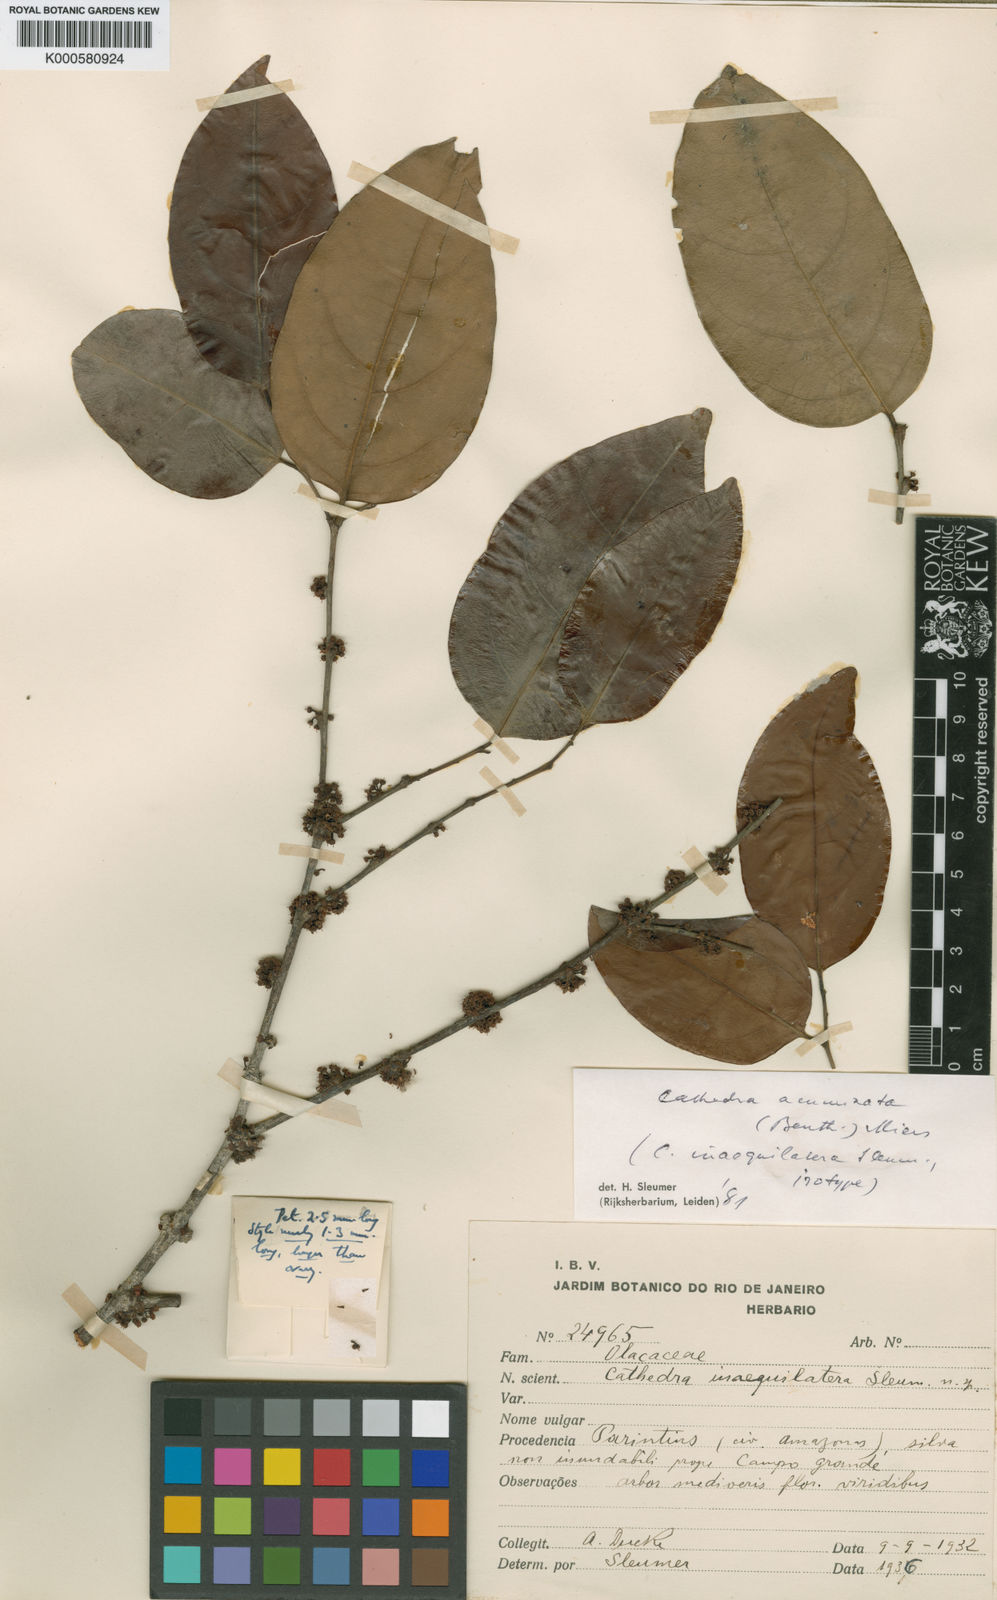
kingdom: Plantae
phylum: Tracheophyta
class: Magnoliopsida
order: Santalales
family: Aptandraceae
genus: Cathedra
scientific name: Cathedra acuminata
